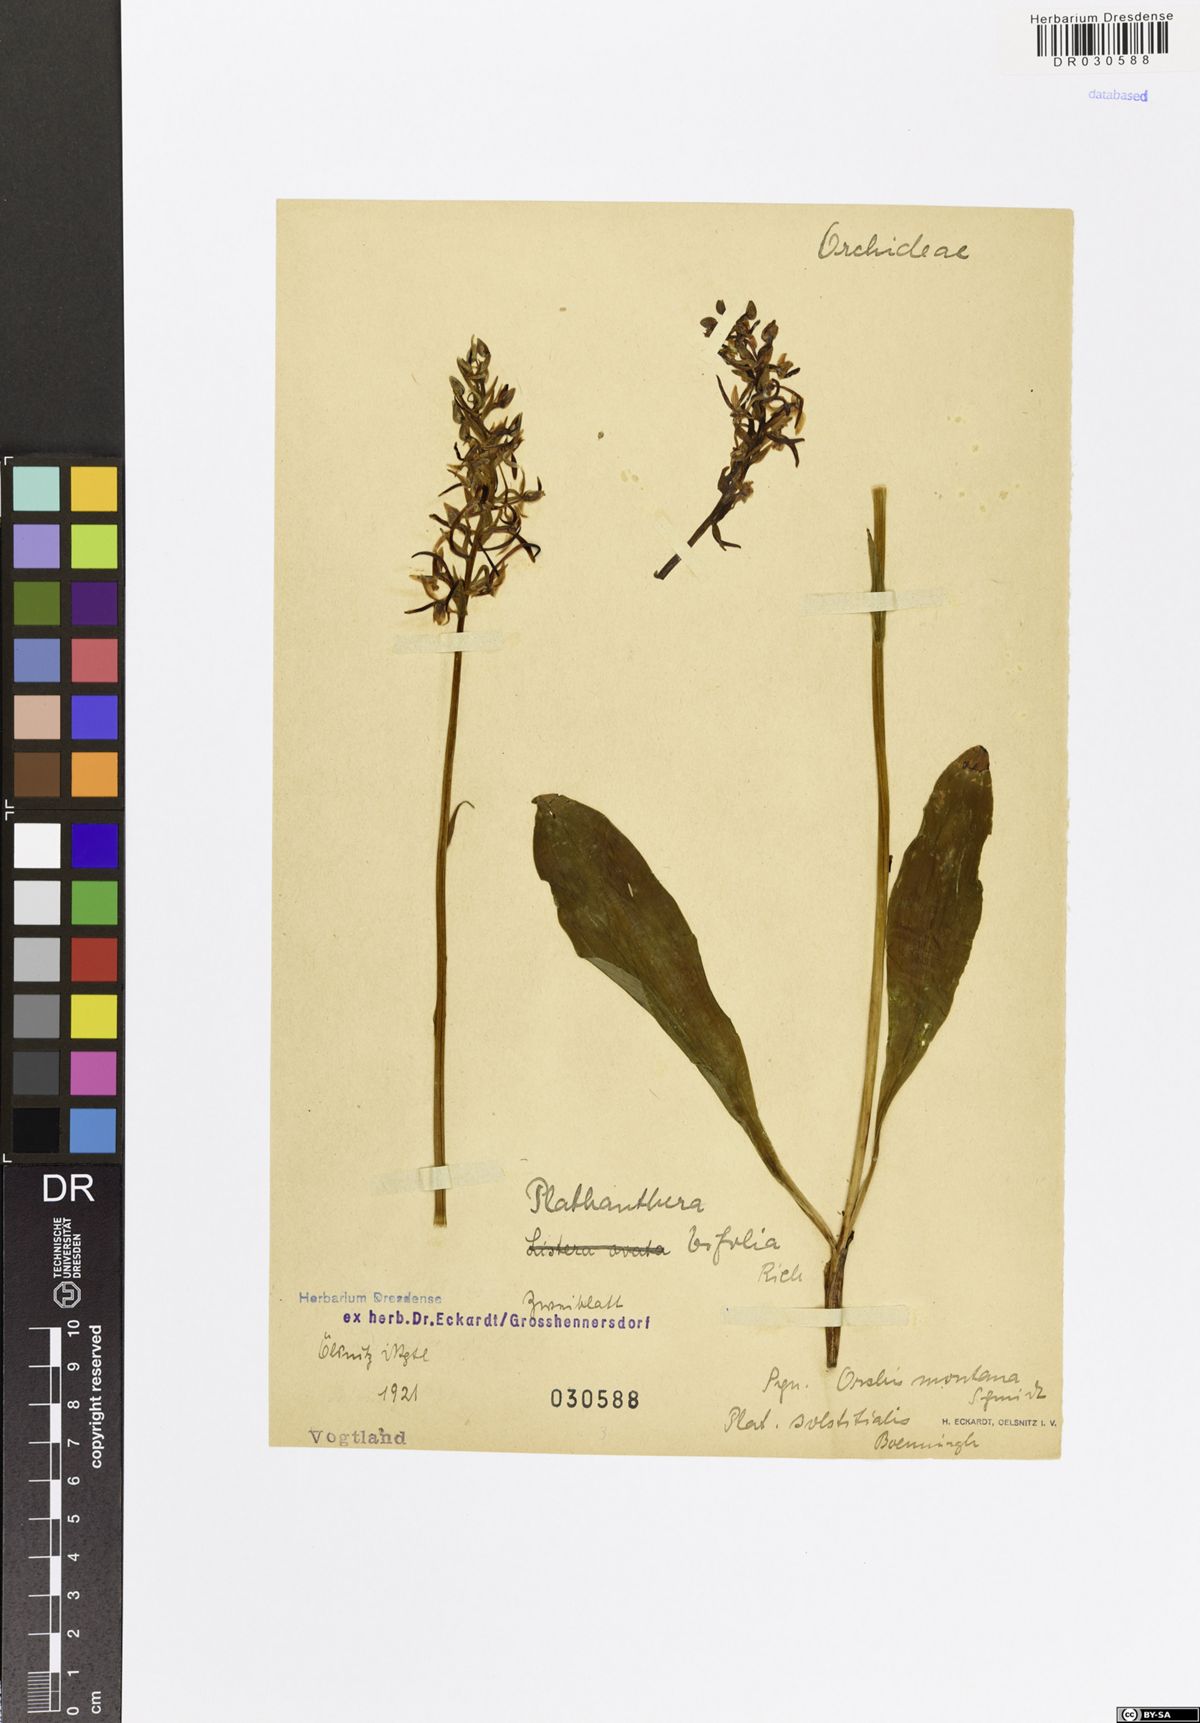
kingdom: Plantae
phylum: Tracheophyta
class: Liliopsida
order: Asparagales
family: Orchidaceae
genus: Platanthera
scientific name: Platanthera bifolia
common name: Lesser butterfly-orchid
